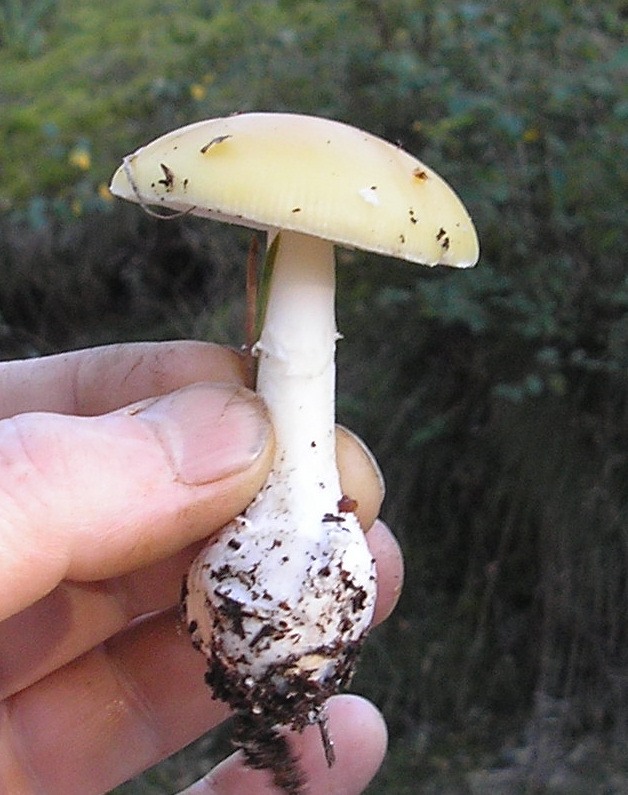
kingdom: Fungi
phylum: Basidiomycota
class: Agaricomycetes
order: Agaricales
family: Amanitaceae
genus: Amanita
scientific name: Amanita gemmata
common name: okkergul fluesvamp
